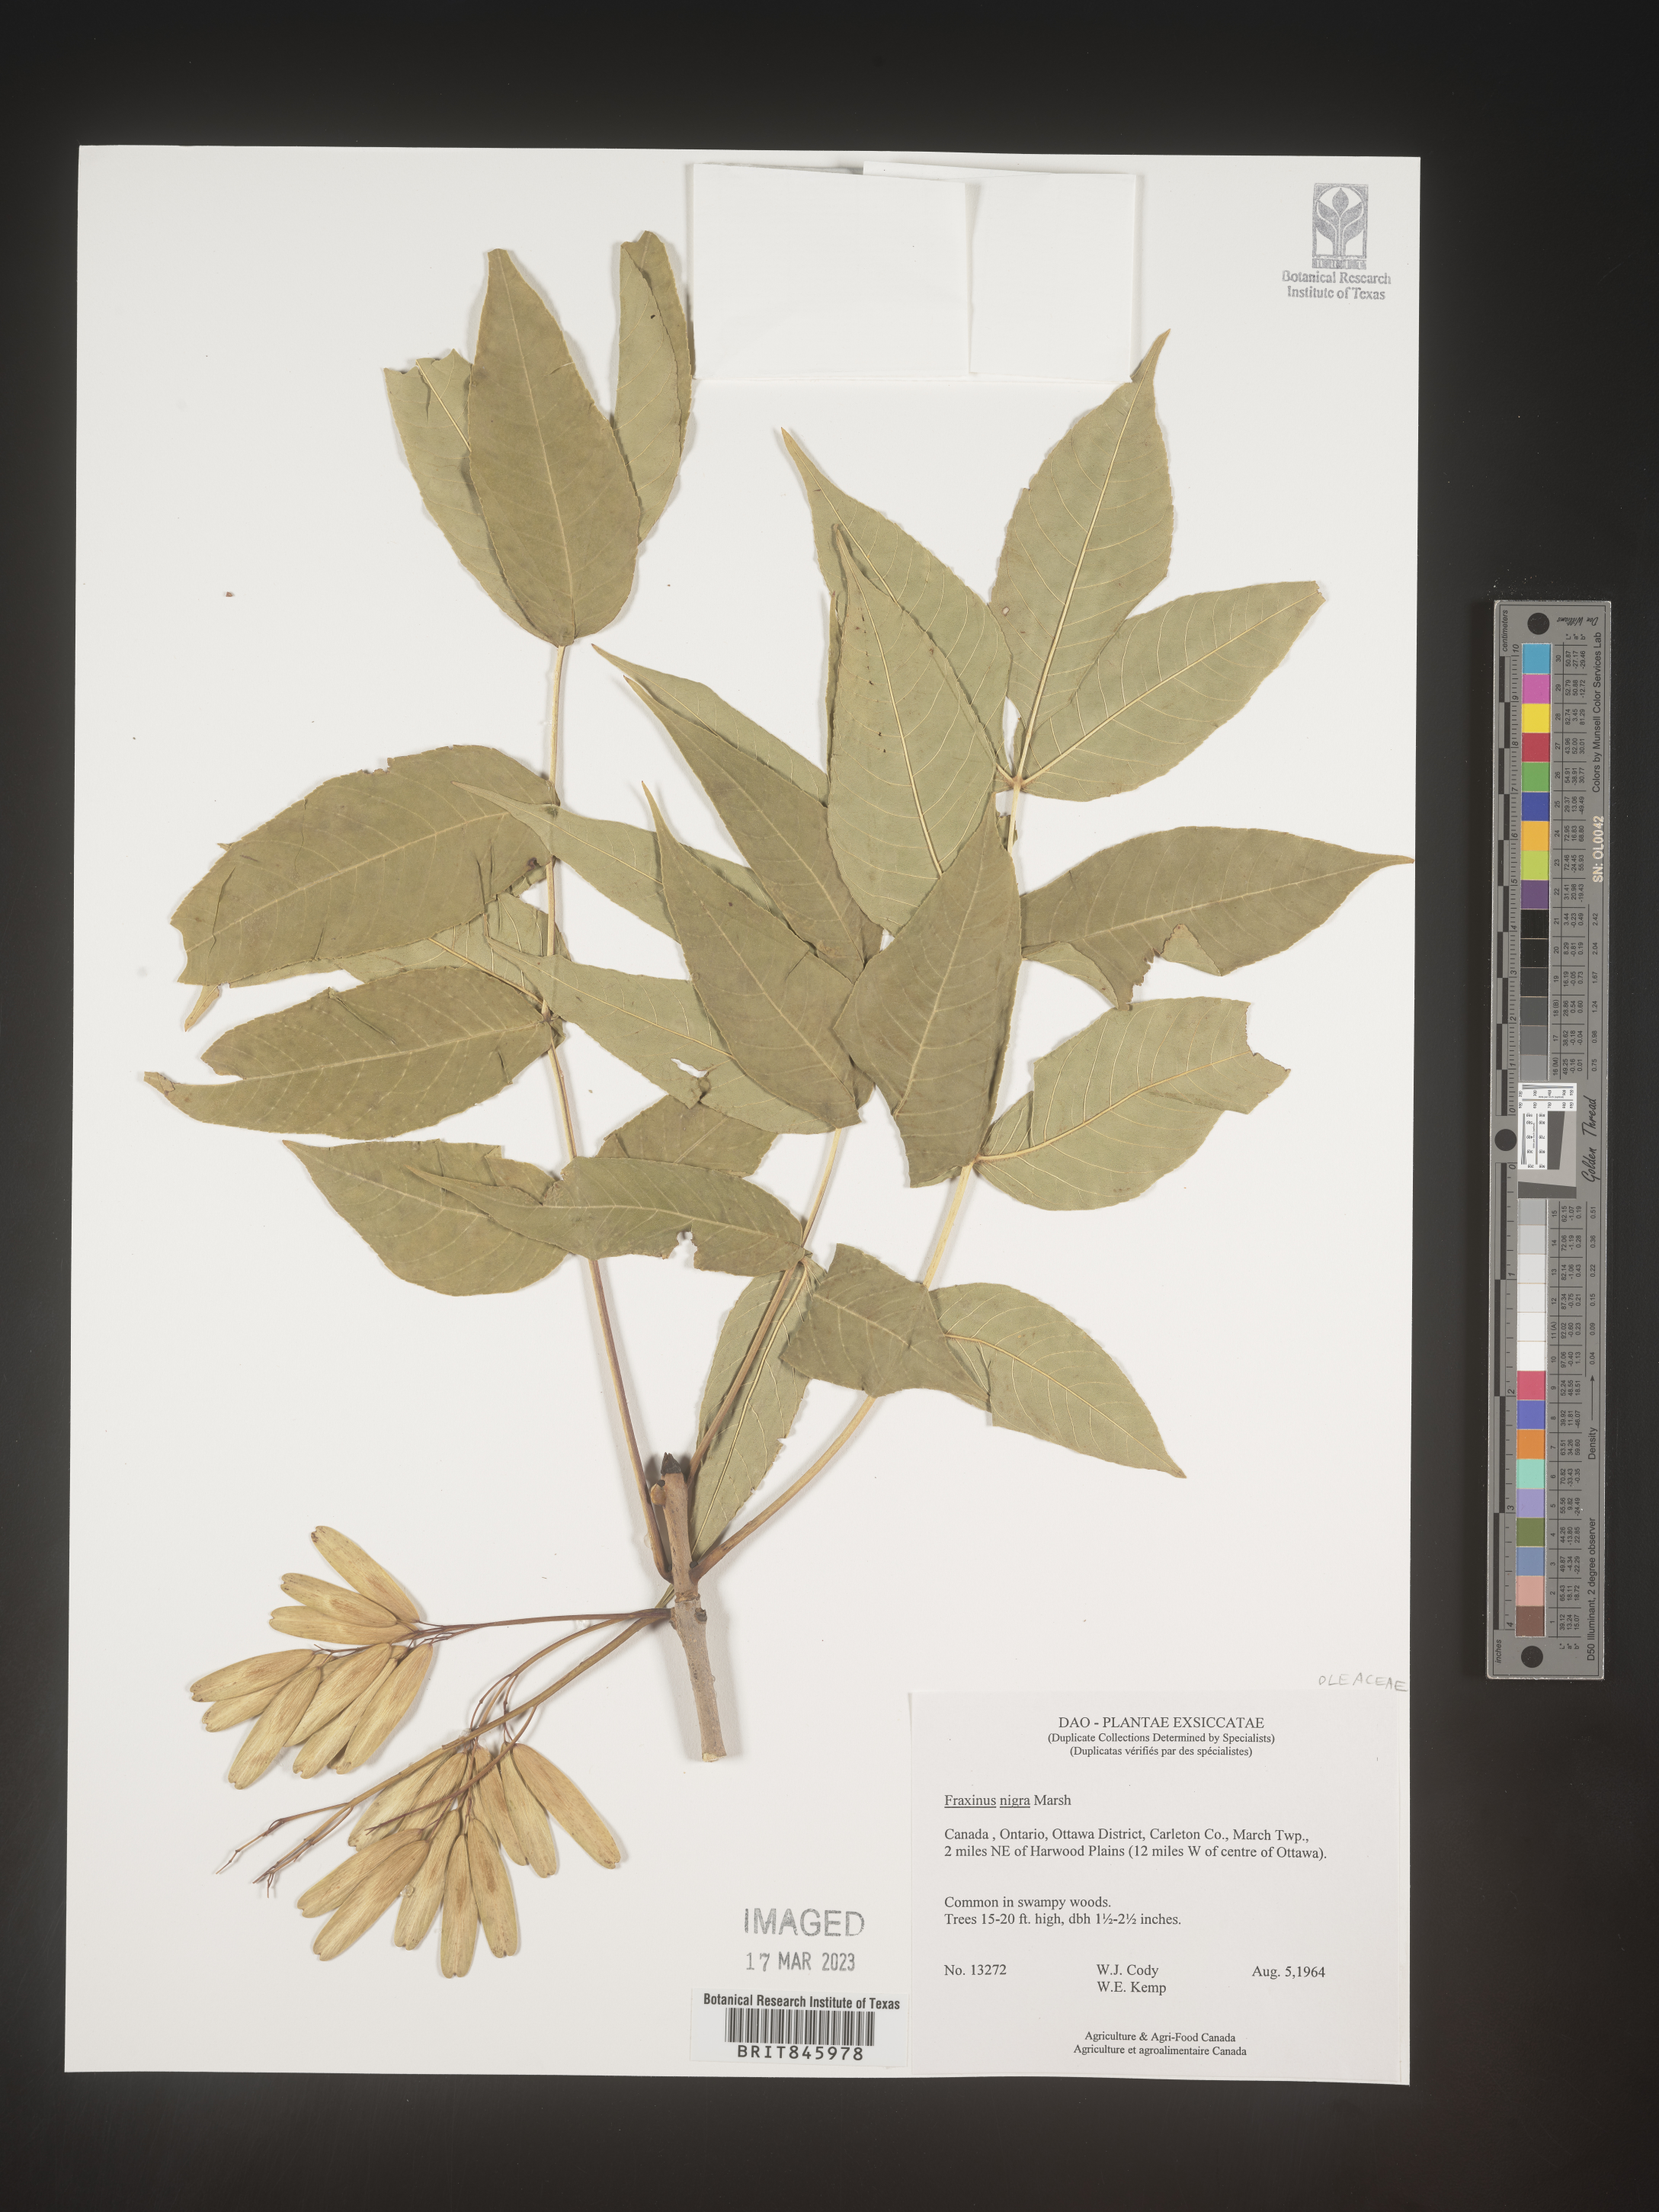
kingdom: Plantae
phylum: Tracheophyta
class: Magnoliopsida
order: Lamiales
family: Oleaceae
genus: Fraxinus
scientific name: Fraxinus nigra
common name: Black ash
